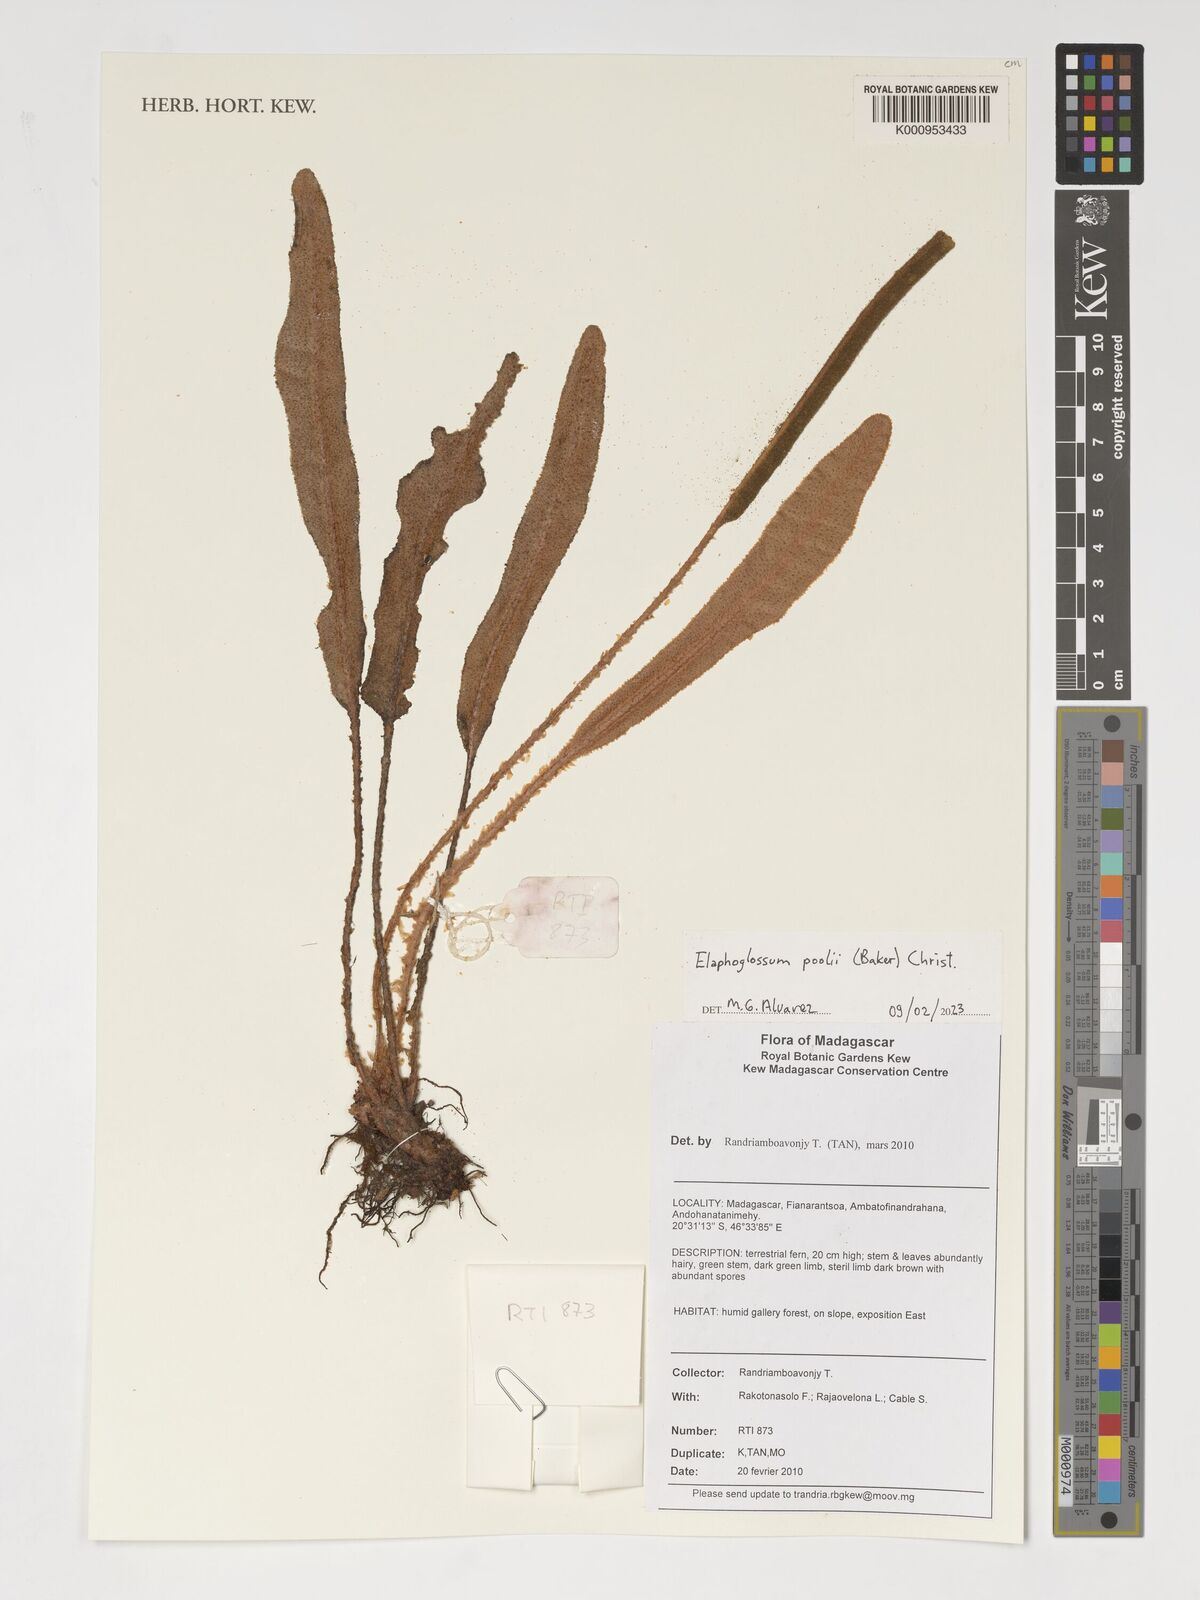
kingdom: Plantae
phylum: Tracheophyta
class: Polypodiopsida
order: Polypodiales
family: Dryopteridaceae
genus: Elaphoglossum
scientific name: Elaphoglossum poolii
